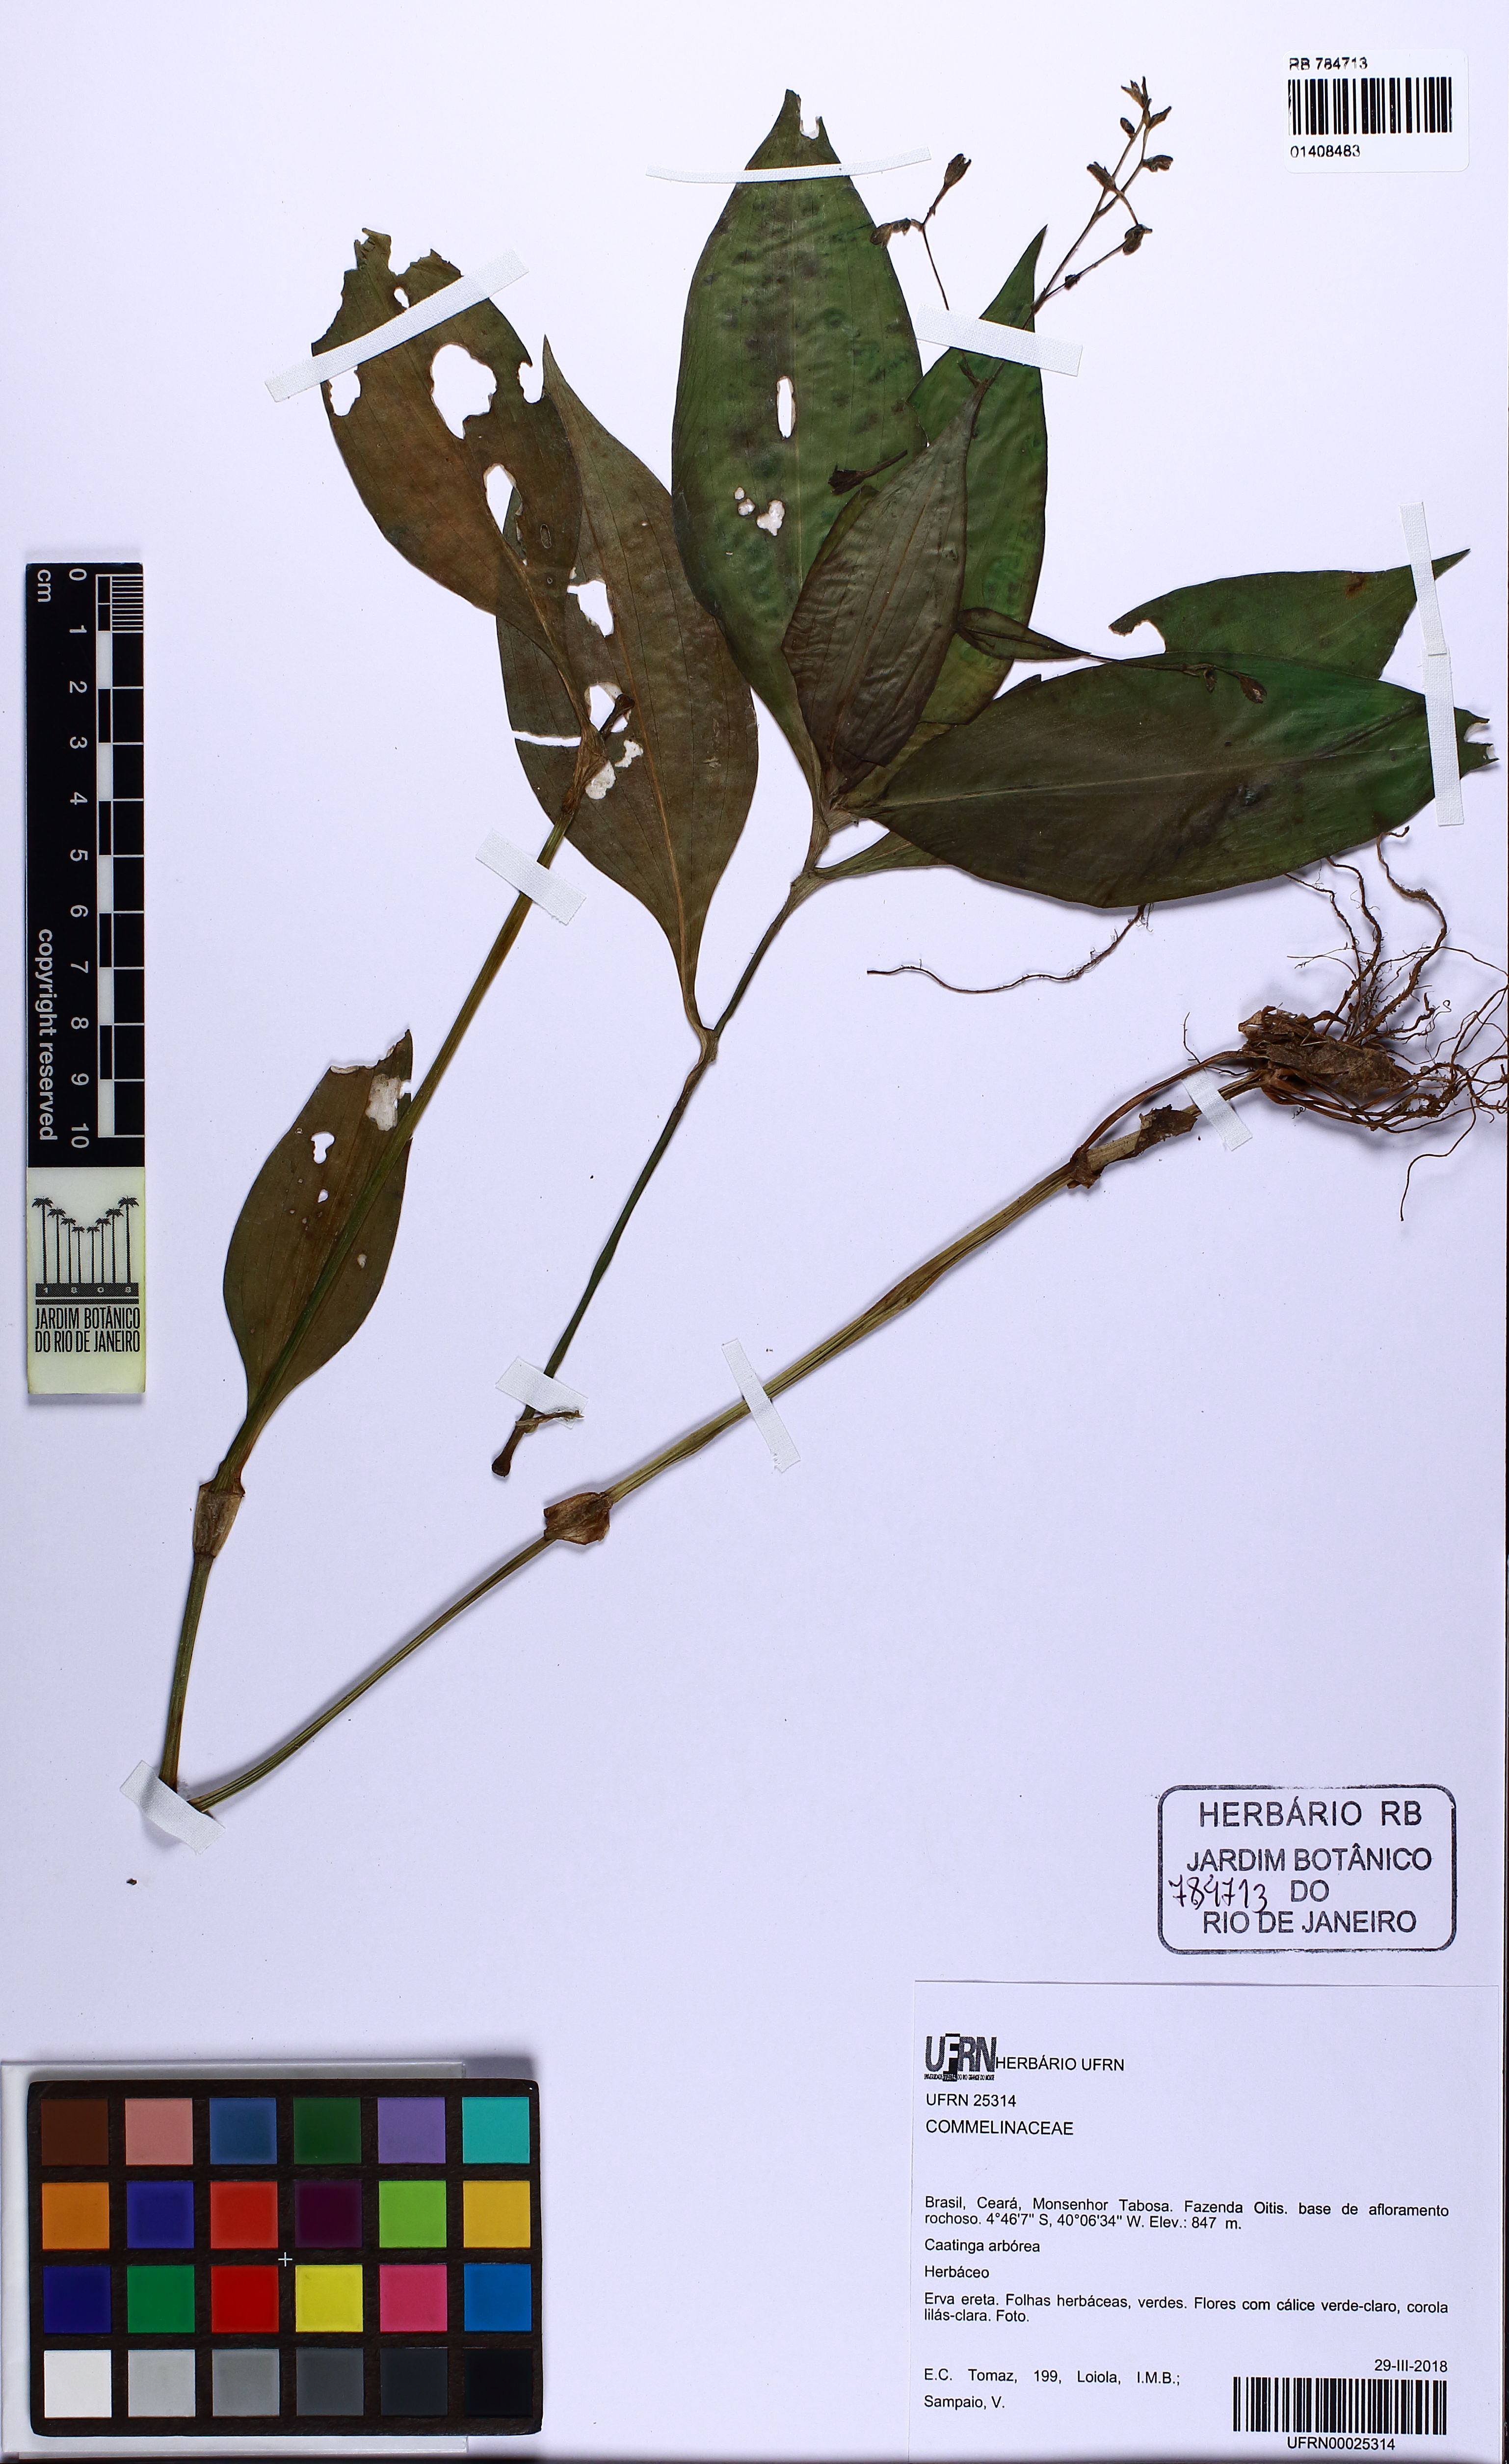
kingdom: Plantae
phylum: Tracheophyta
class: Liliopsida
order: Commelinales
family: Commelinaceae
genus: Aneilema
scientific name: Aneilema brasiliense
